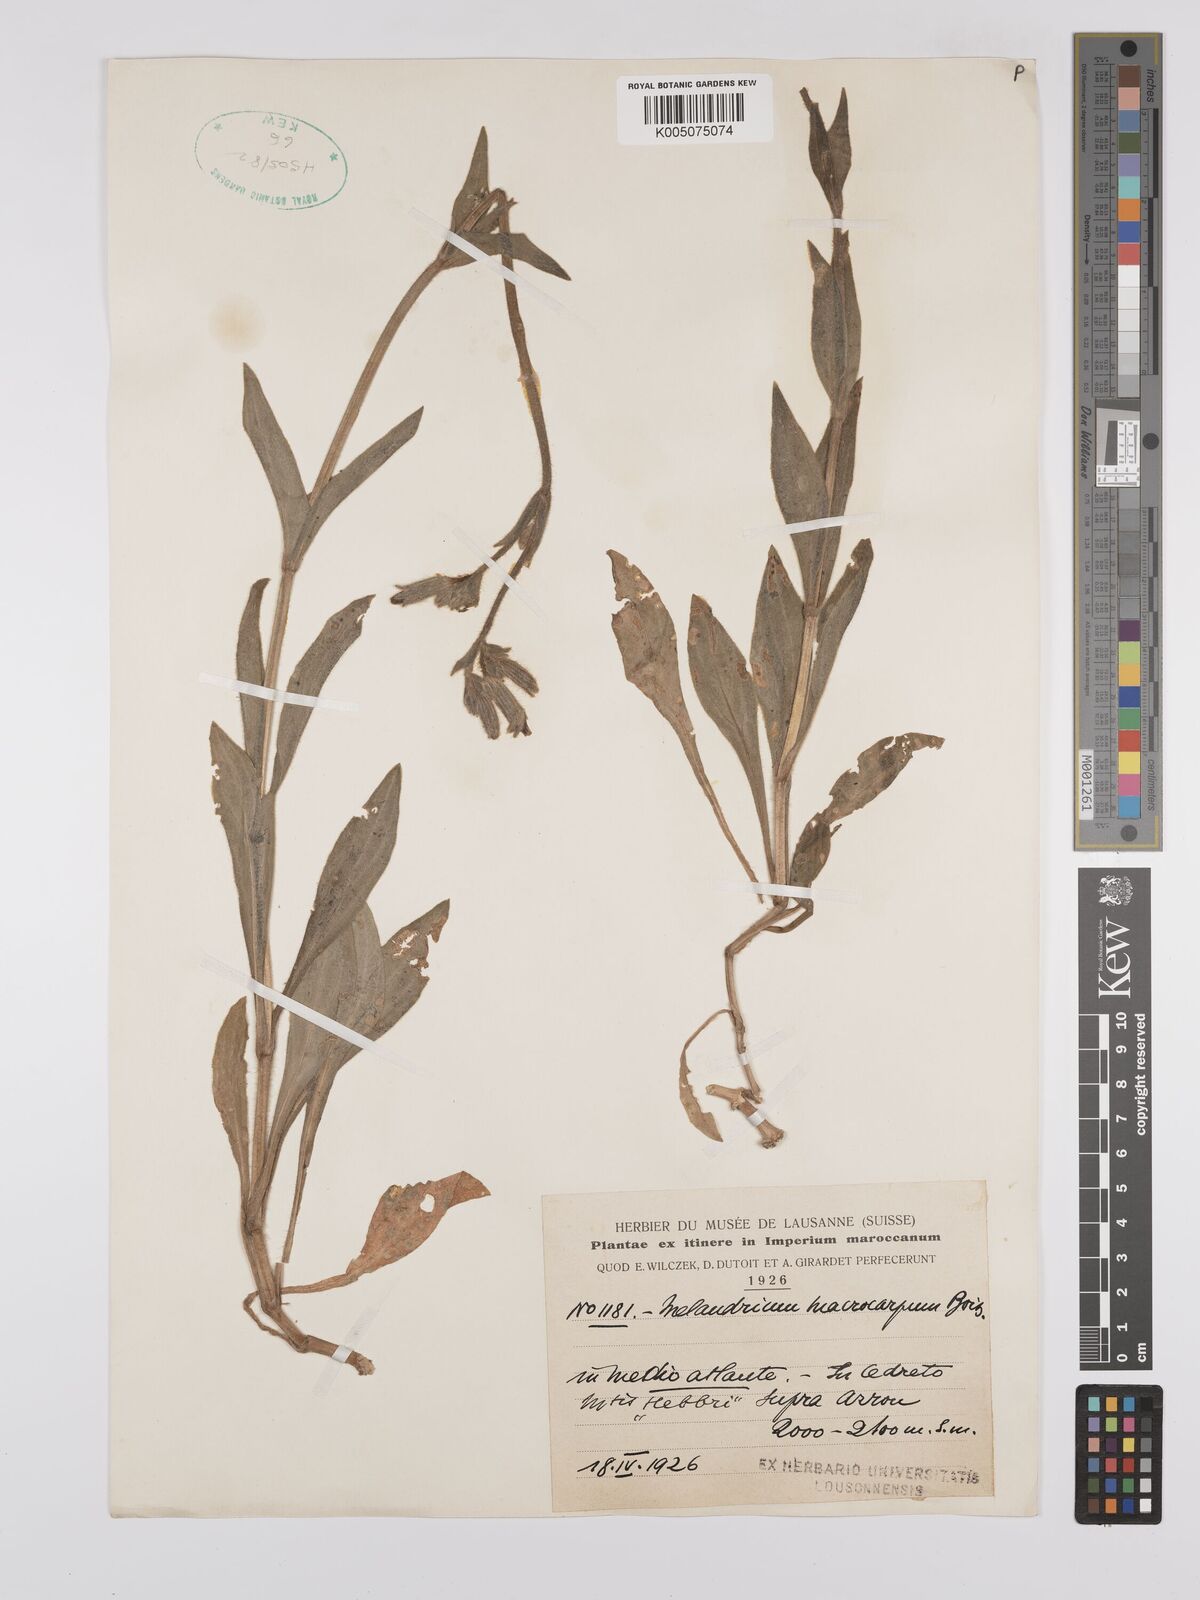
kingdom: Plantae
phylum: Tracheophyta
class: Magnoliopsida
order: Caryophyllales
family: Caryophyllaceae
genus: Silene
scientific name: Silene
